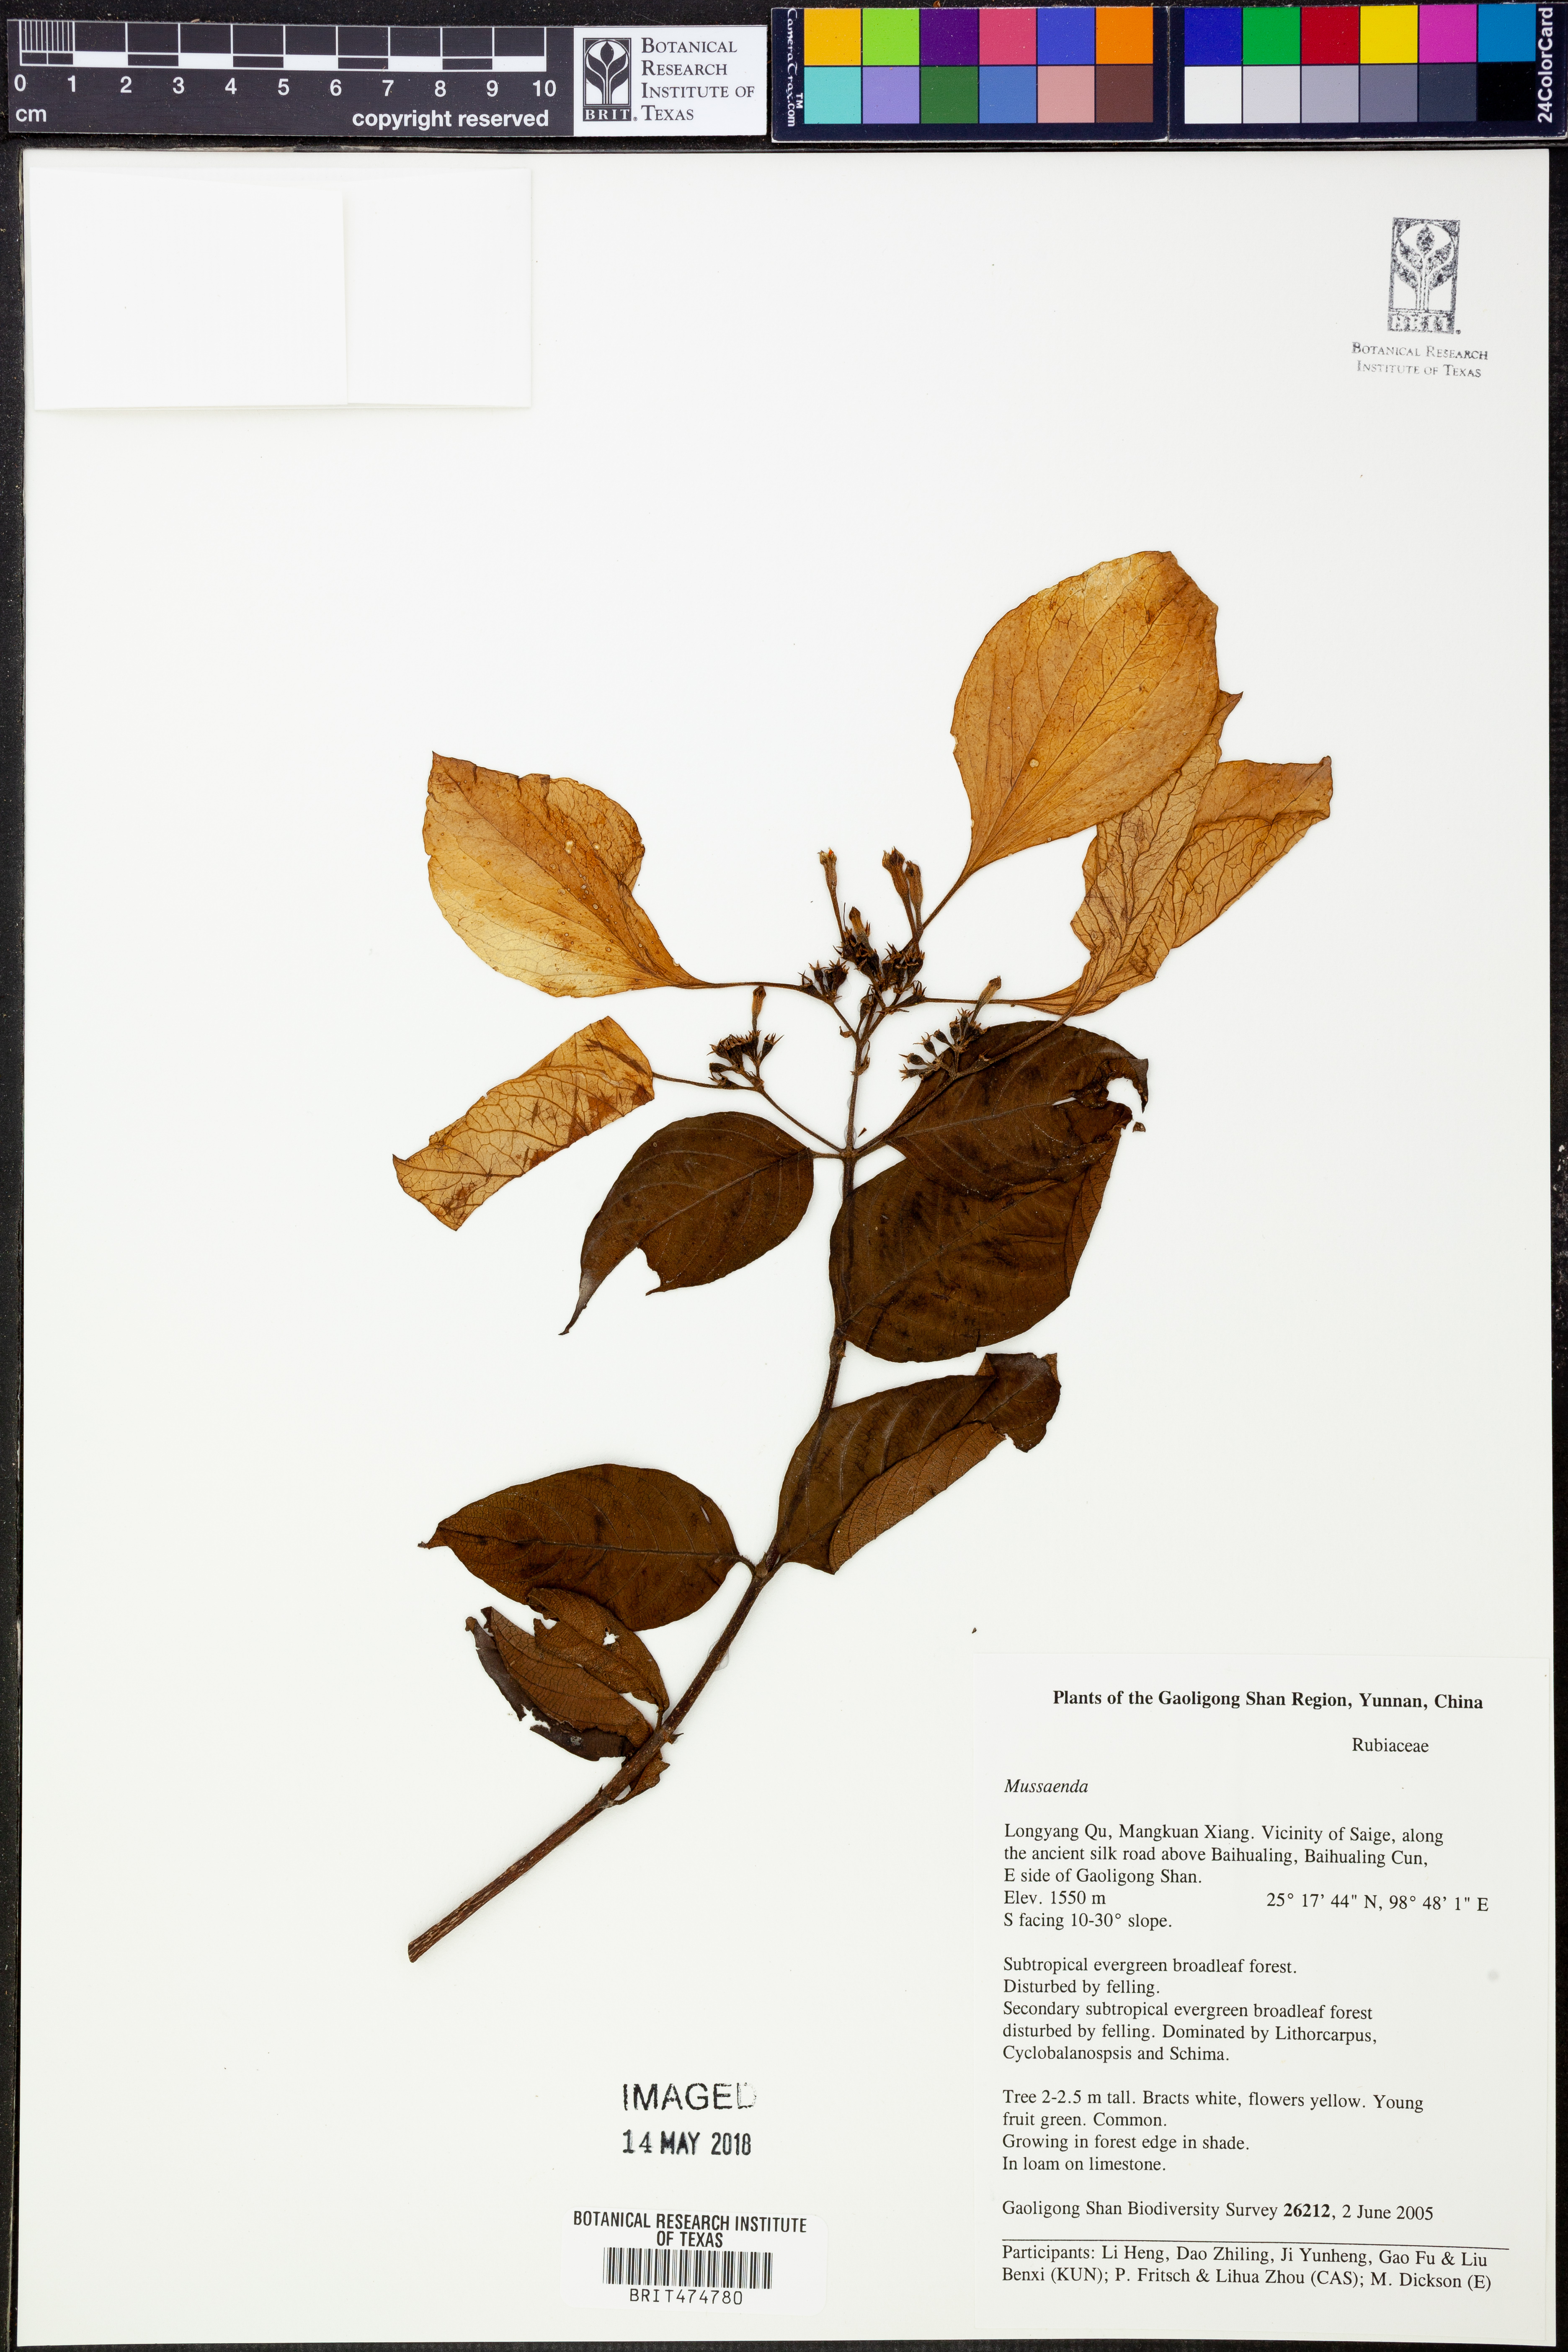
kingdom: Plantae
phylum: Tracheophyta
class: Magnoliopsida
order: Gentianales
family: Rubiaceae
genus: Mussaenda
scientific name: Mussaenda
